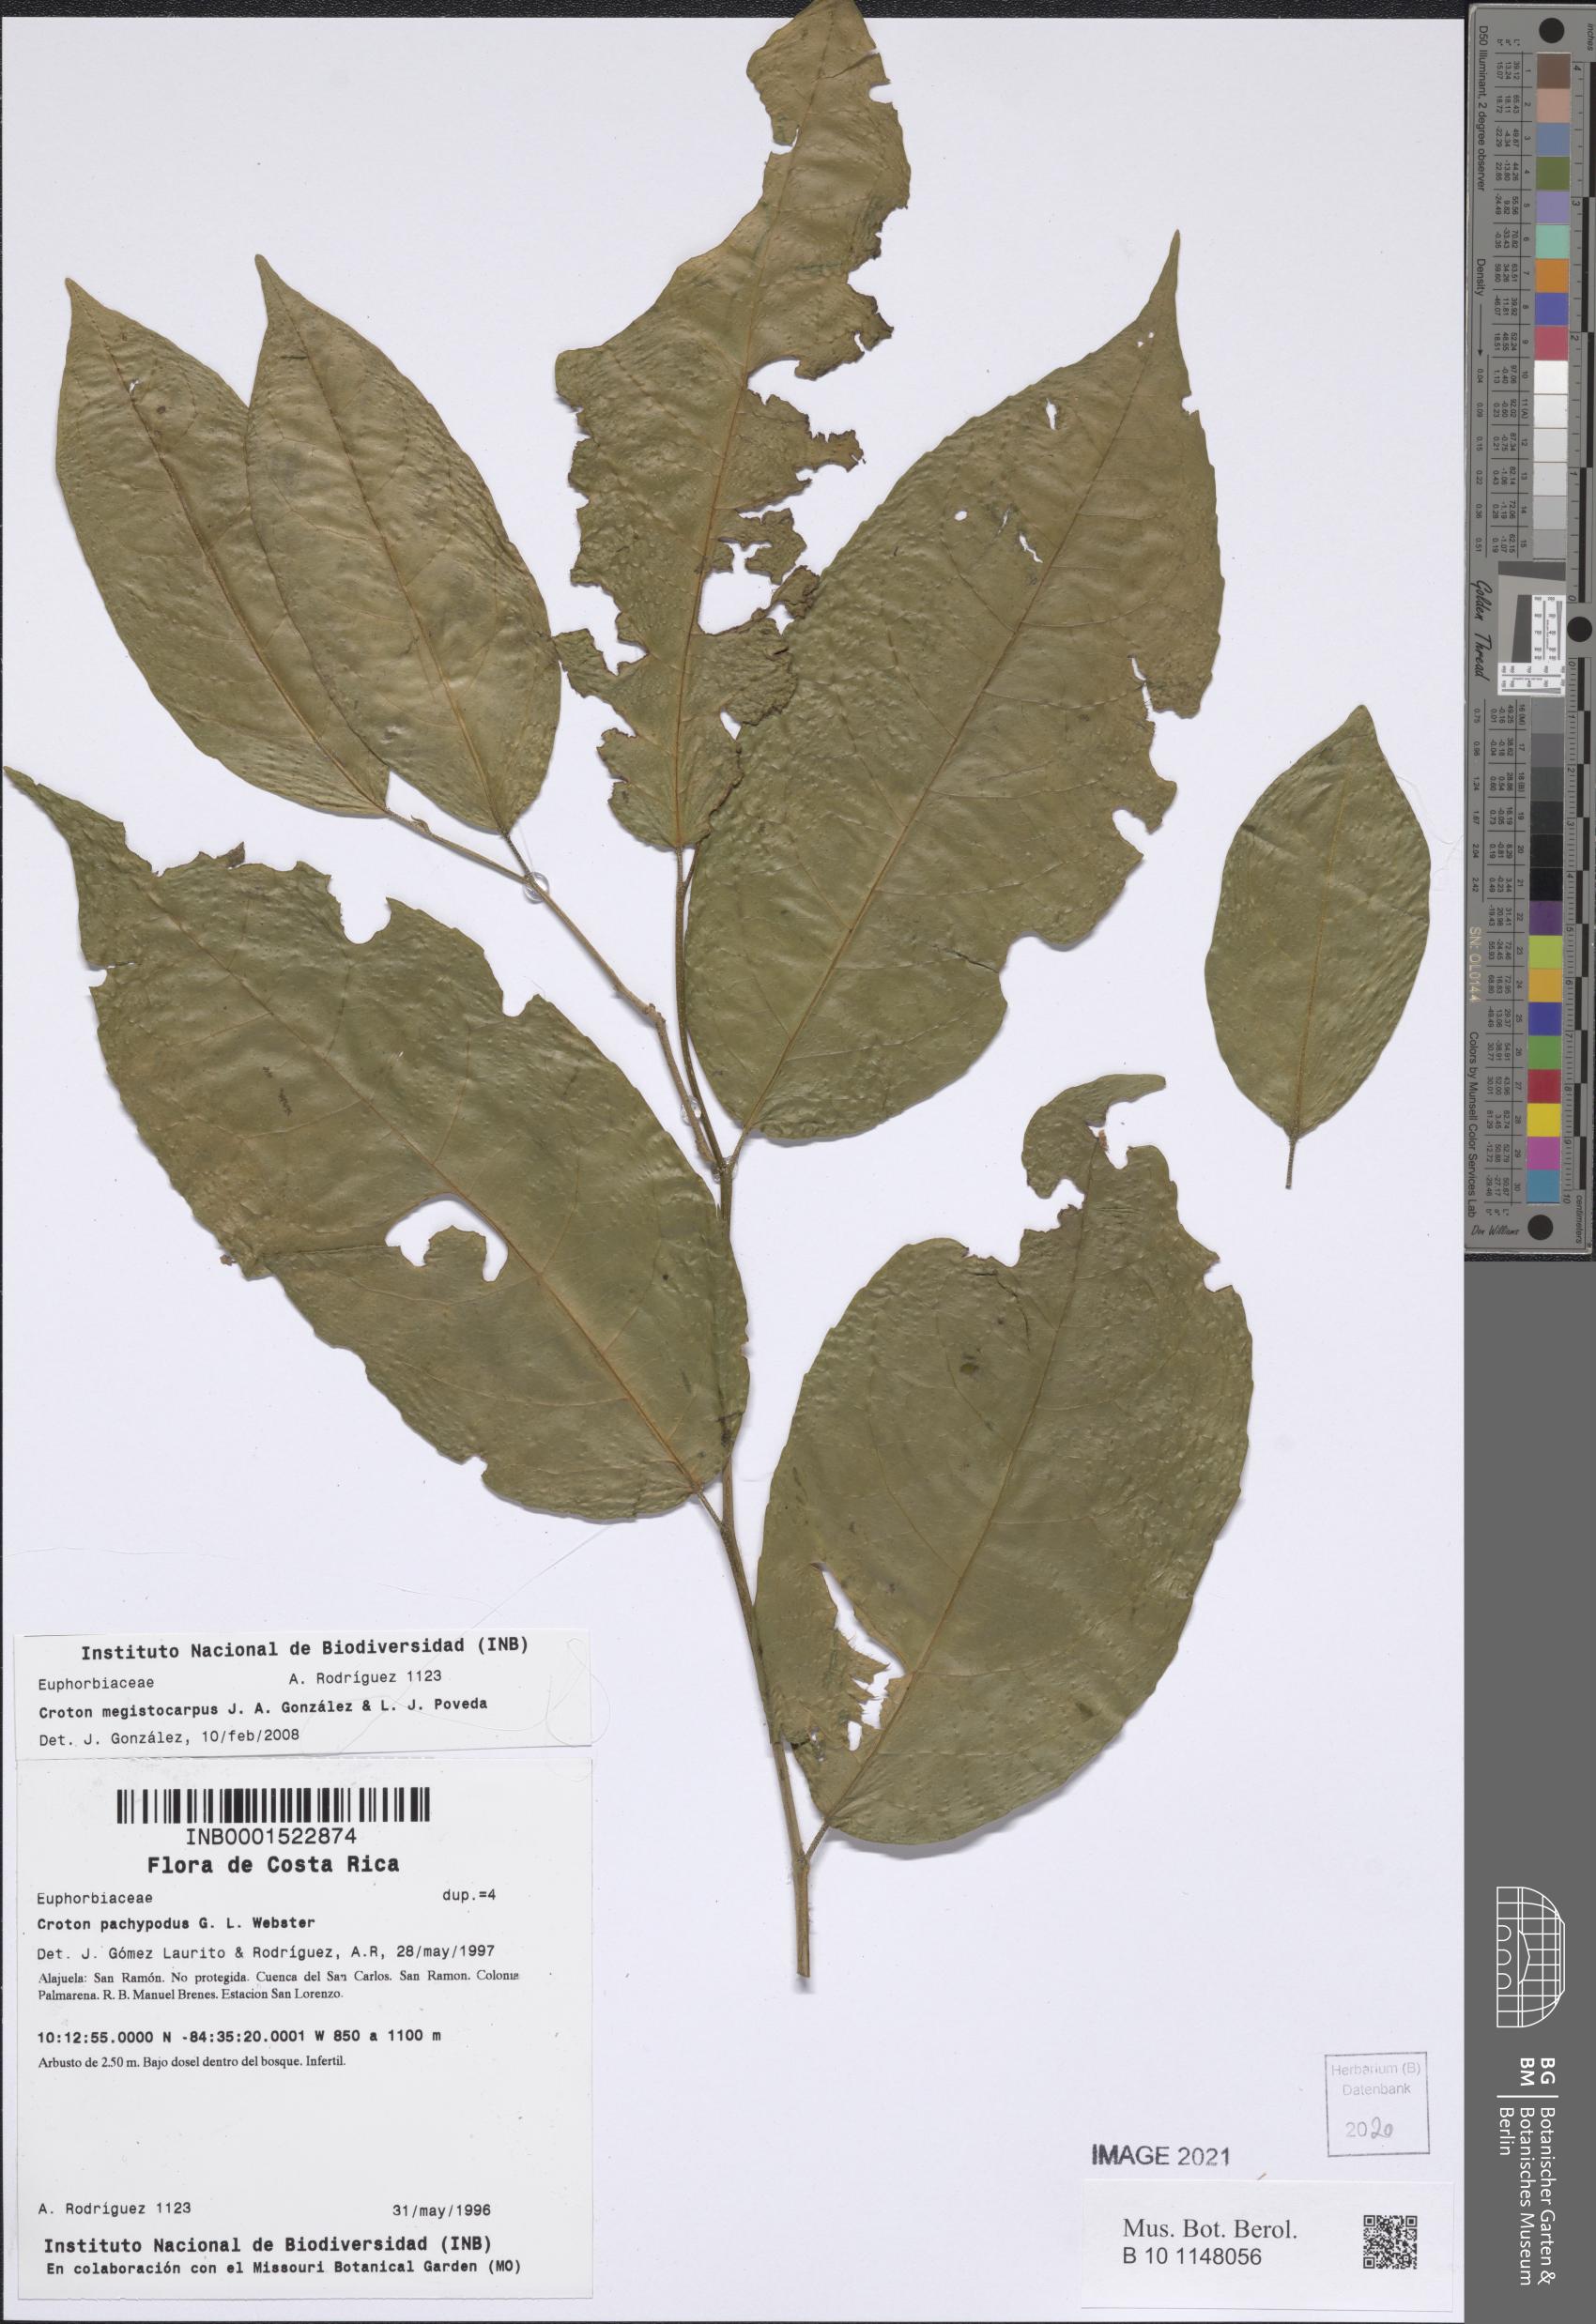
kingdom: Plantae
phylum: Tracheophyta
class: Magnoliopsida
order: Malpighiales
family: Euphorbiaceae
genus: Croton
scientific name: Croton megistocarpus
